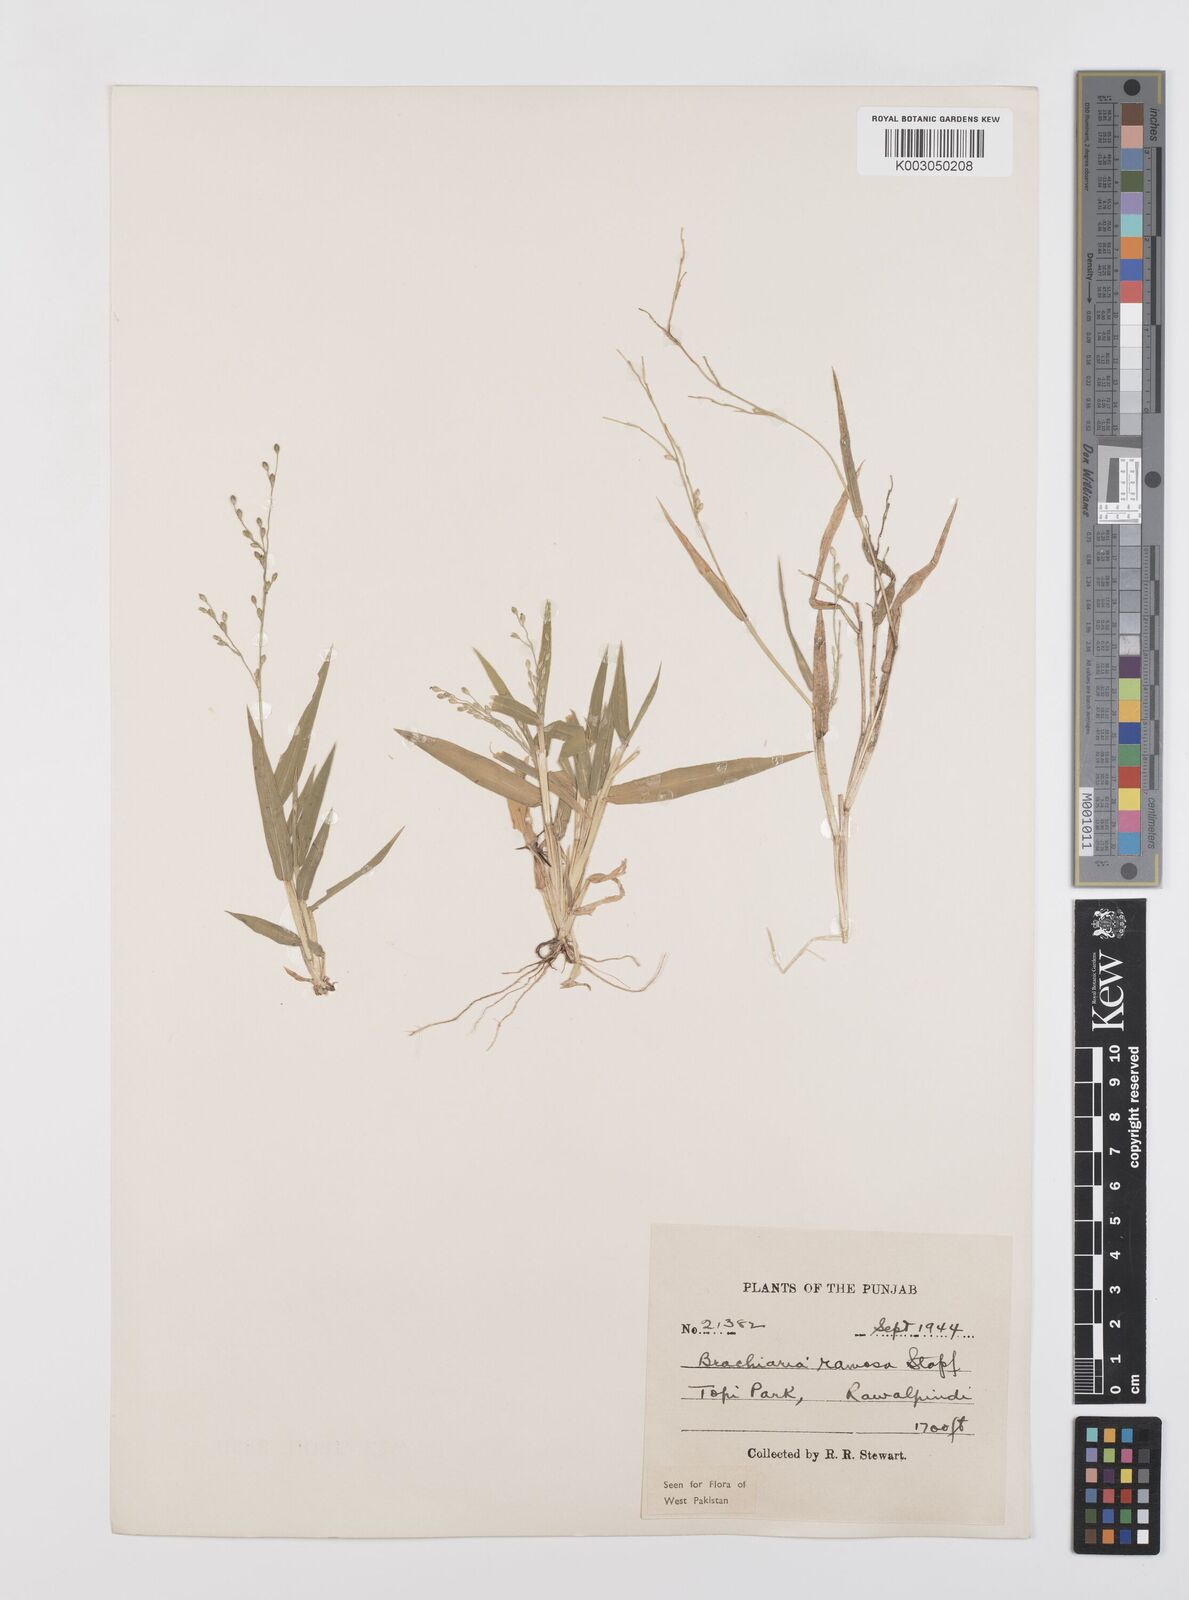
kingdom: Plantae
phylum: Tracheophyta
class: Liliopsida
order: Poales
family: Poaceae
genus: Urochloa
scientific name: Urochloa ramosa
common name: Browntop millet
